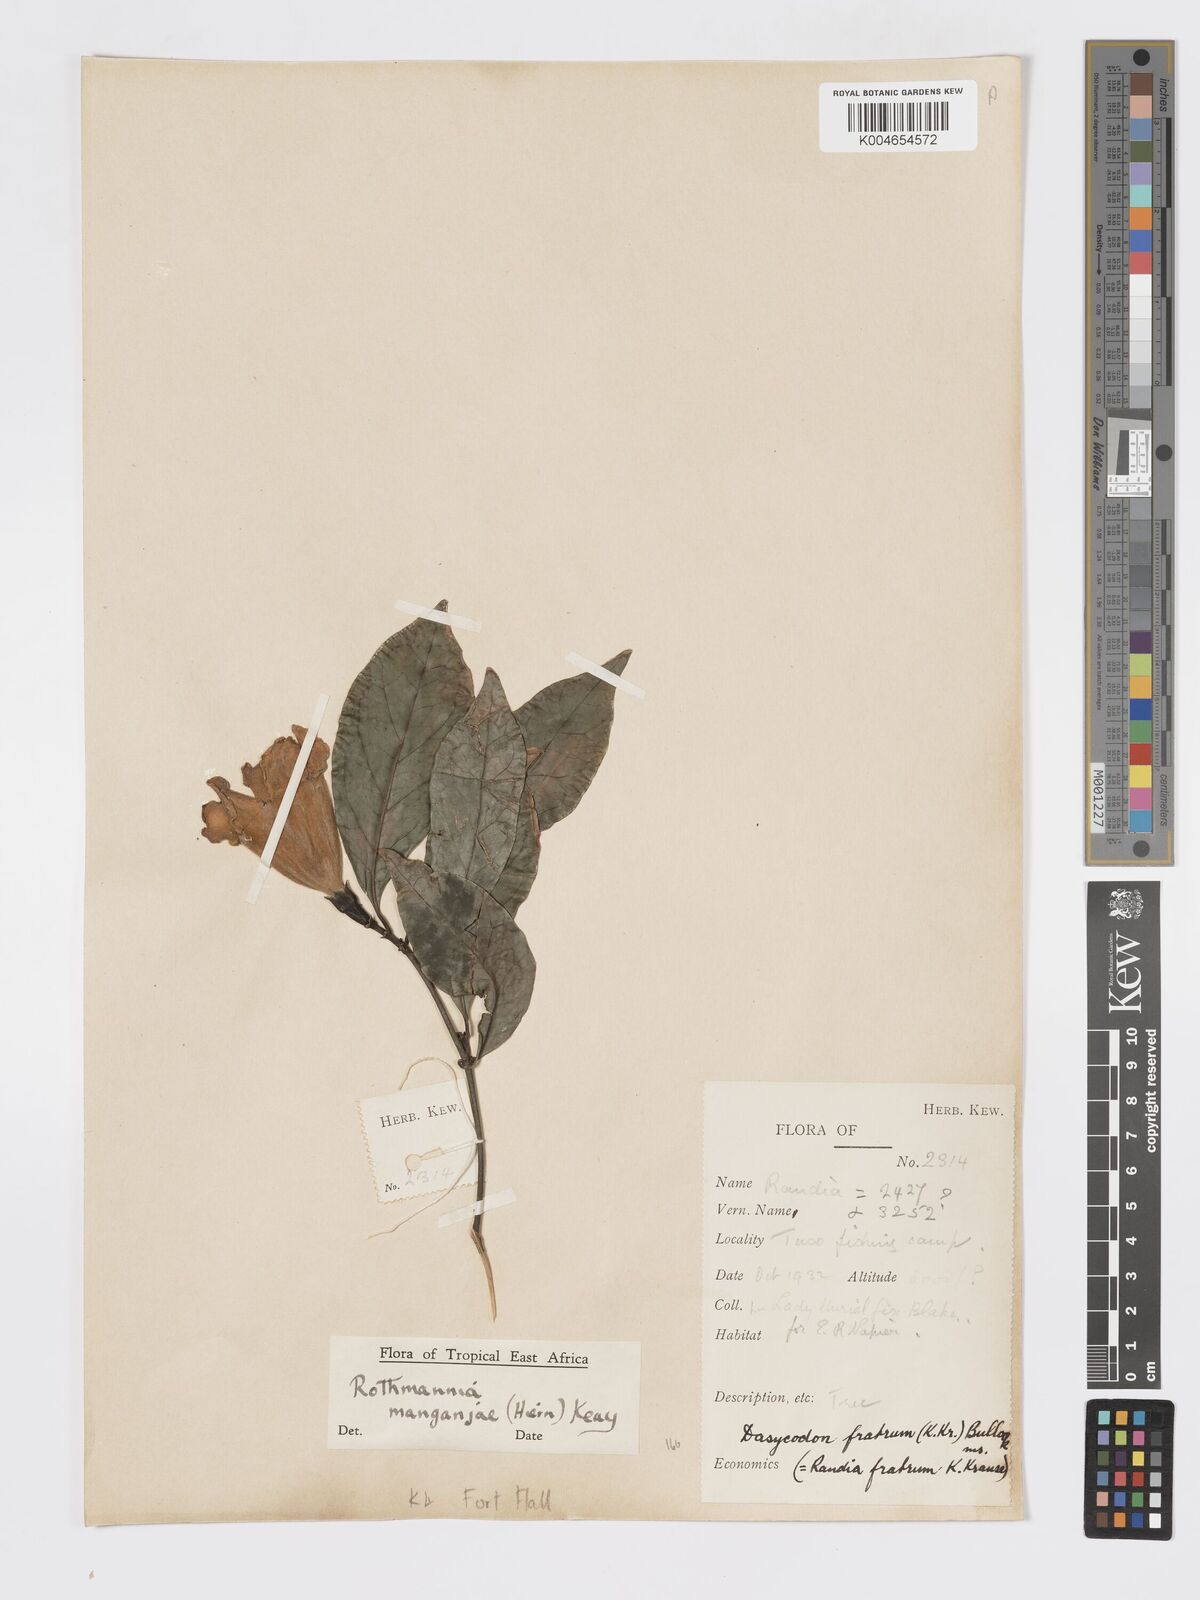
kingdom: Plantae
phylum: Tracheophyta
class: Magnoliopsida
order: Gentianales
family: Rubiaceae
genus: Rothmannia
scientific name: Rothmannia manganjae
